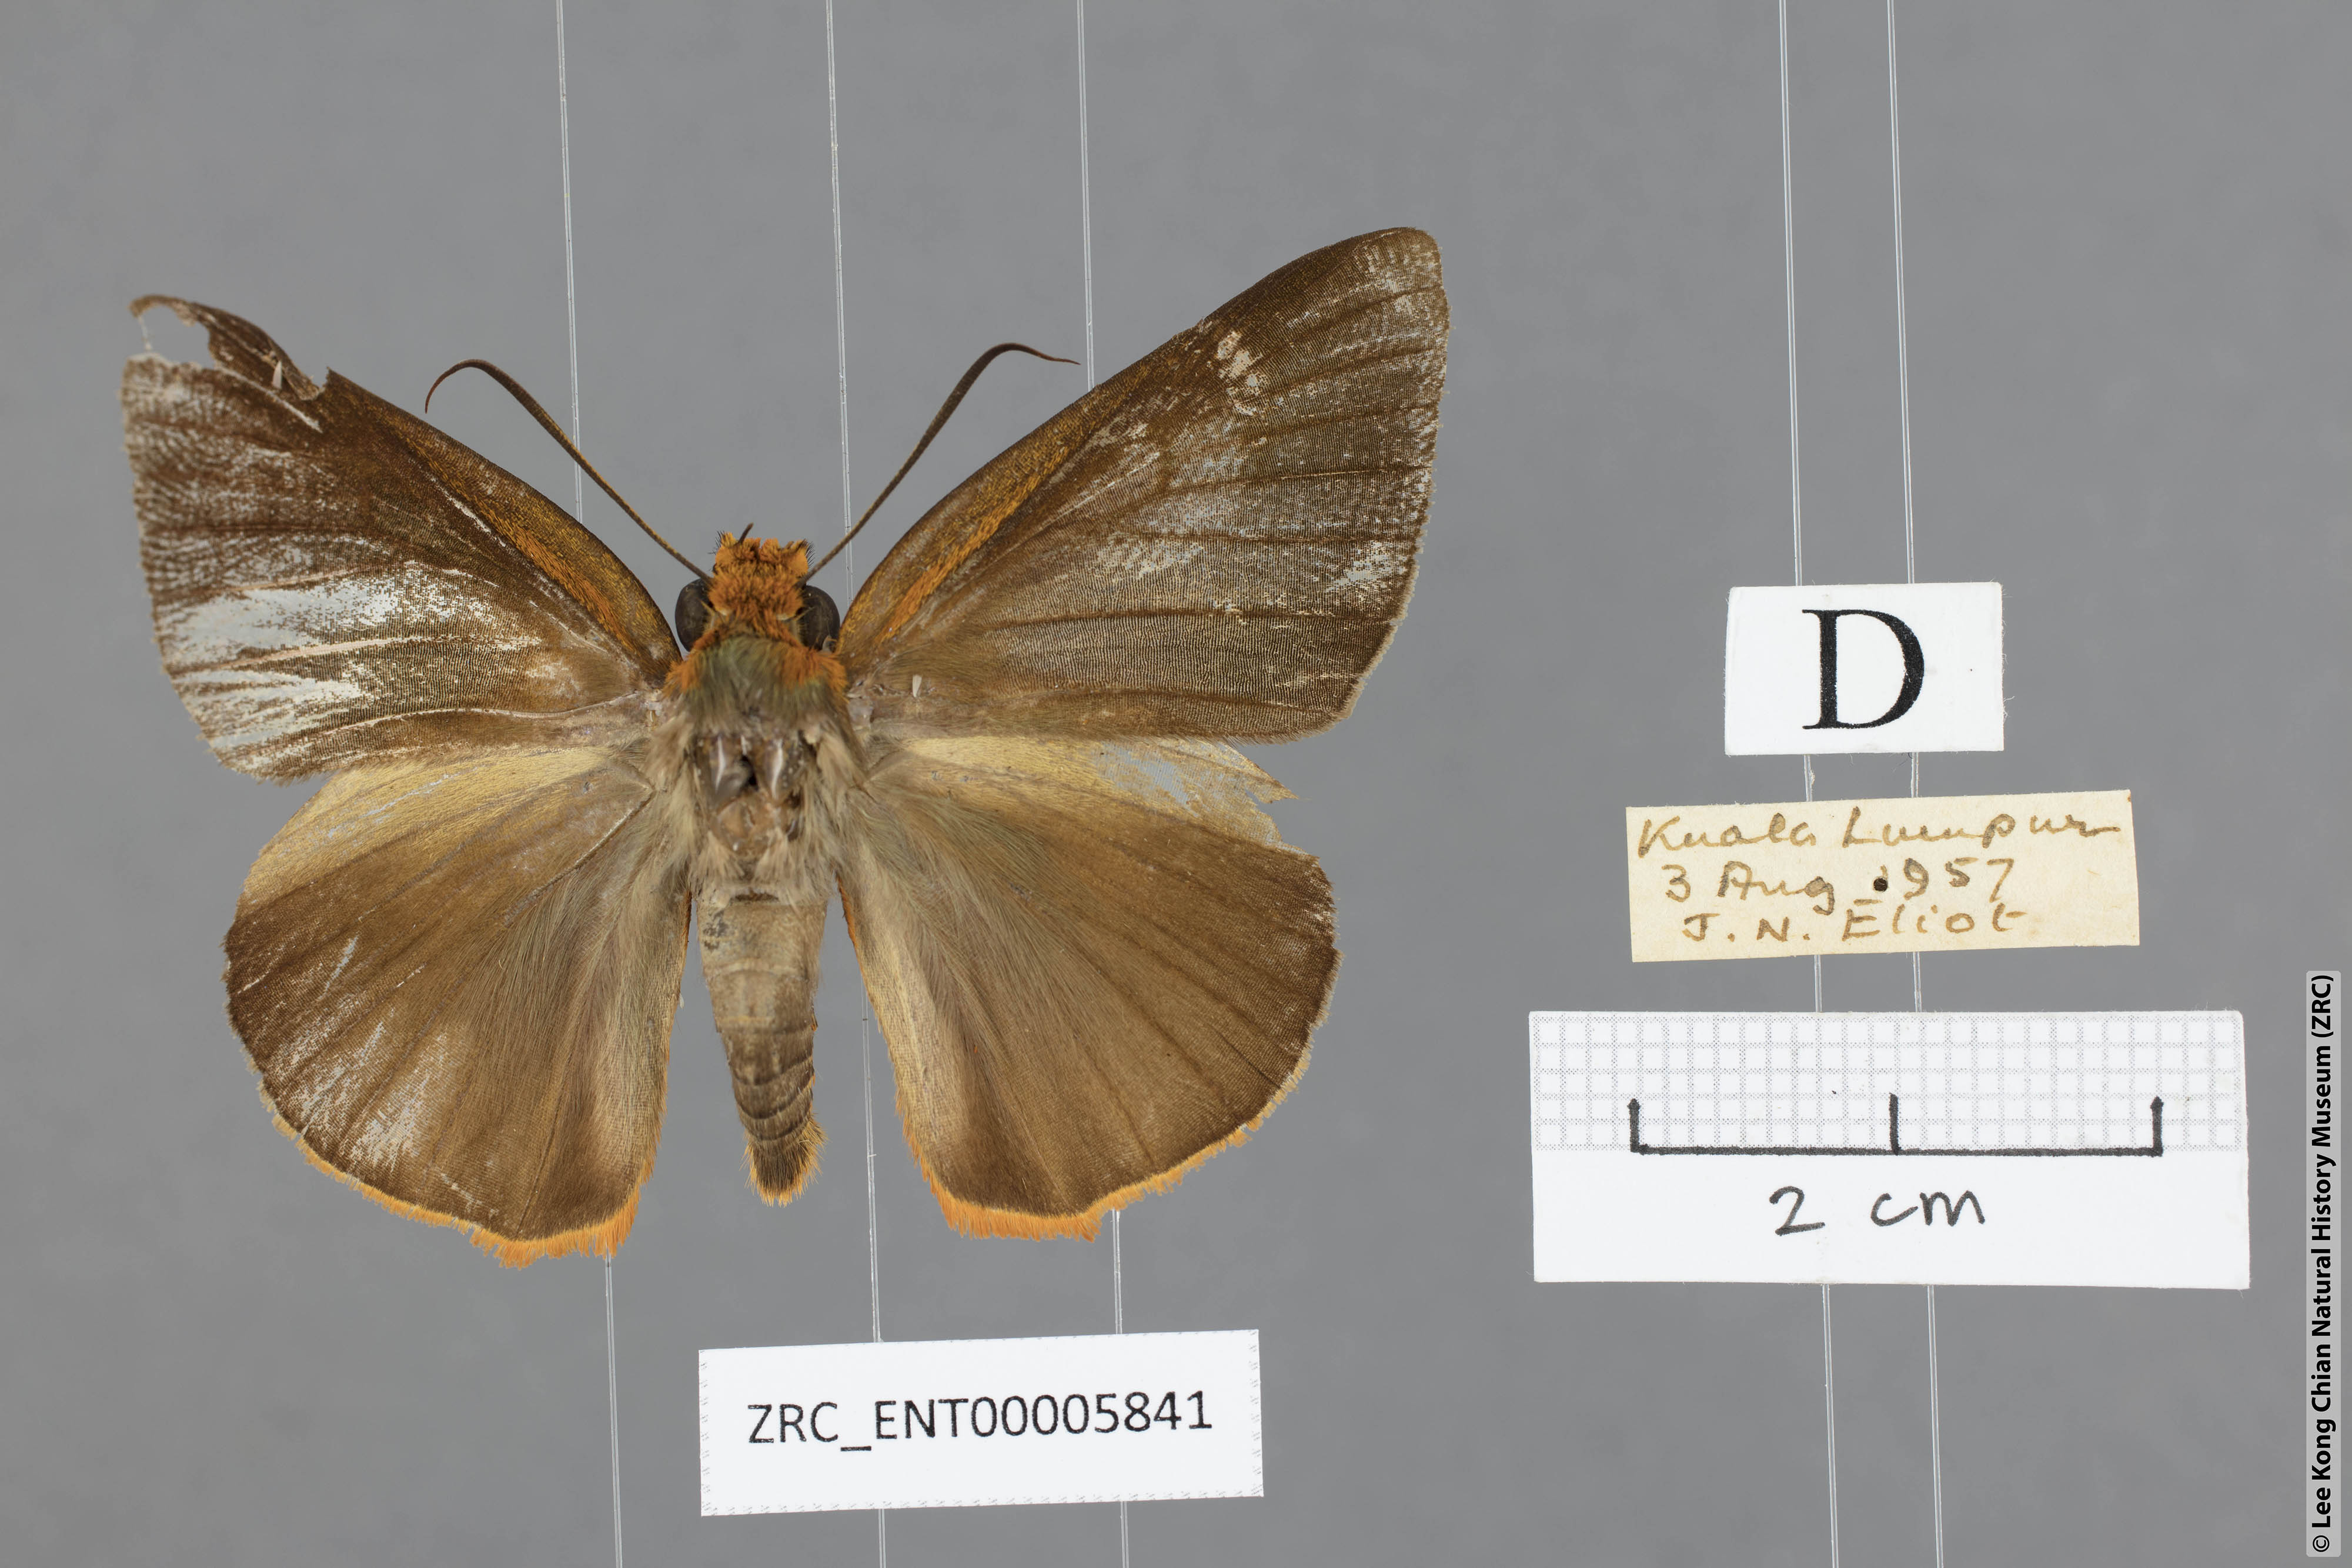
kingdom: Animalia
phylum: Arthropoda
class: Insecta
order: Lepidoptera
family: Hesperiidae
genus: Bibasis
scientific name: Bibasis etelka
